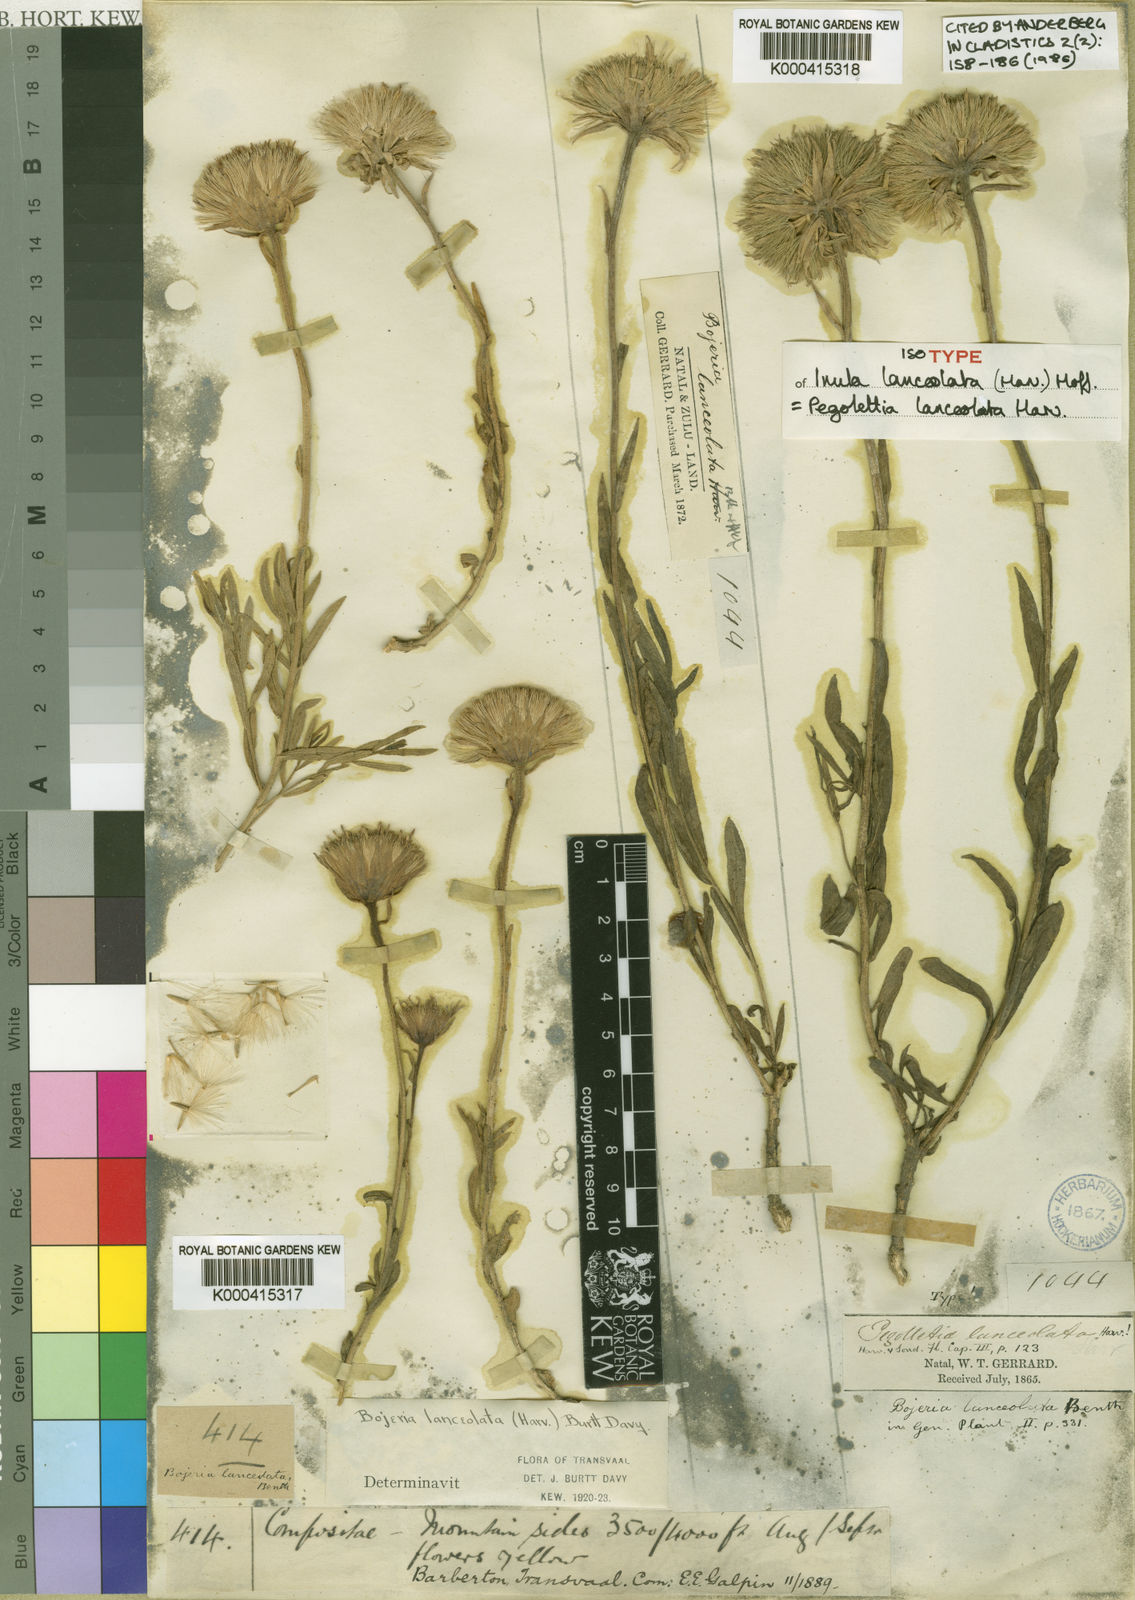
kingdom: Plantae
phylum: Tracheophyta
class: Magnoliopsida
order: Asterales
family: Asteraceae
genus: Pegolettia
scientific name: Pegolettia lanceolata
